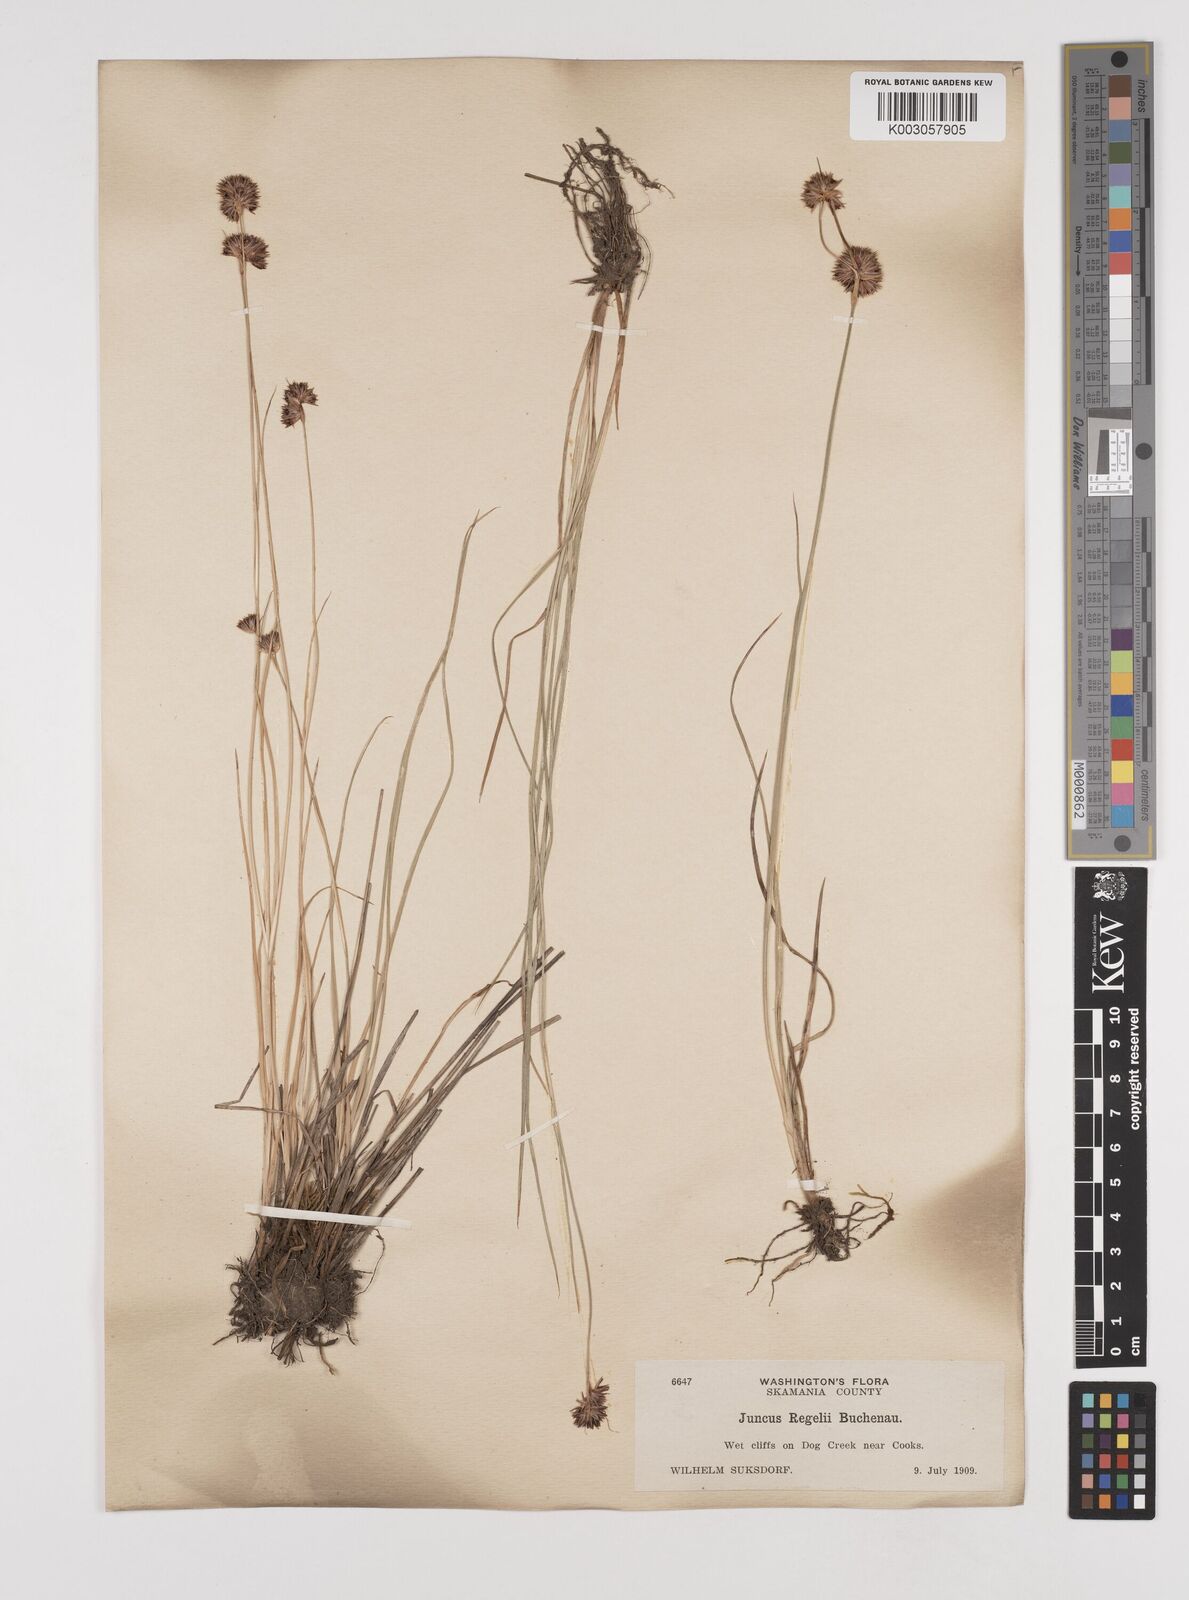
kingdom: Plantae
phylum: Tracheophyta
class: Liliopsida
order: Poales
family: Juncaceae
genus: Juncus
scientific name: Juncus regelii
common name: Regel's rush
